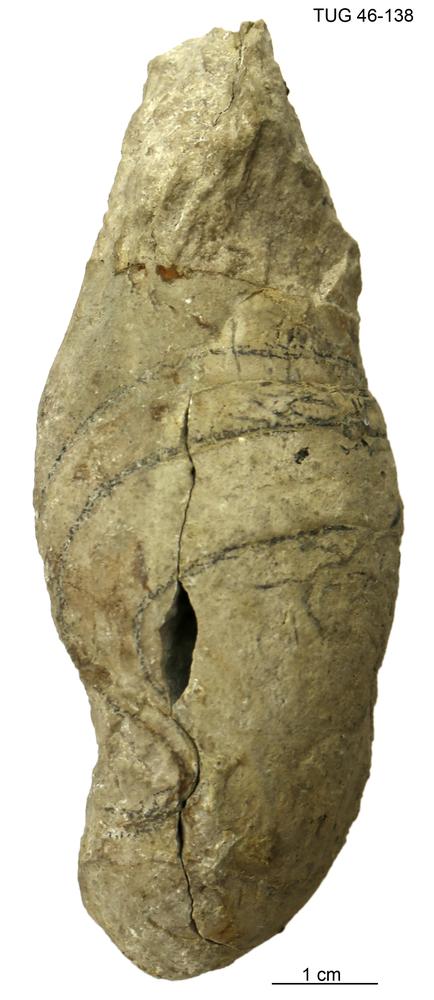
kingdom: Animalia
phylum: Mollusca
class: Cephalopoda
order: Ceratitida
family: Beyrichitidae
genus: Billingsites
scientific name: Billingsites
